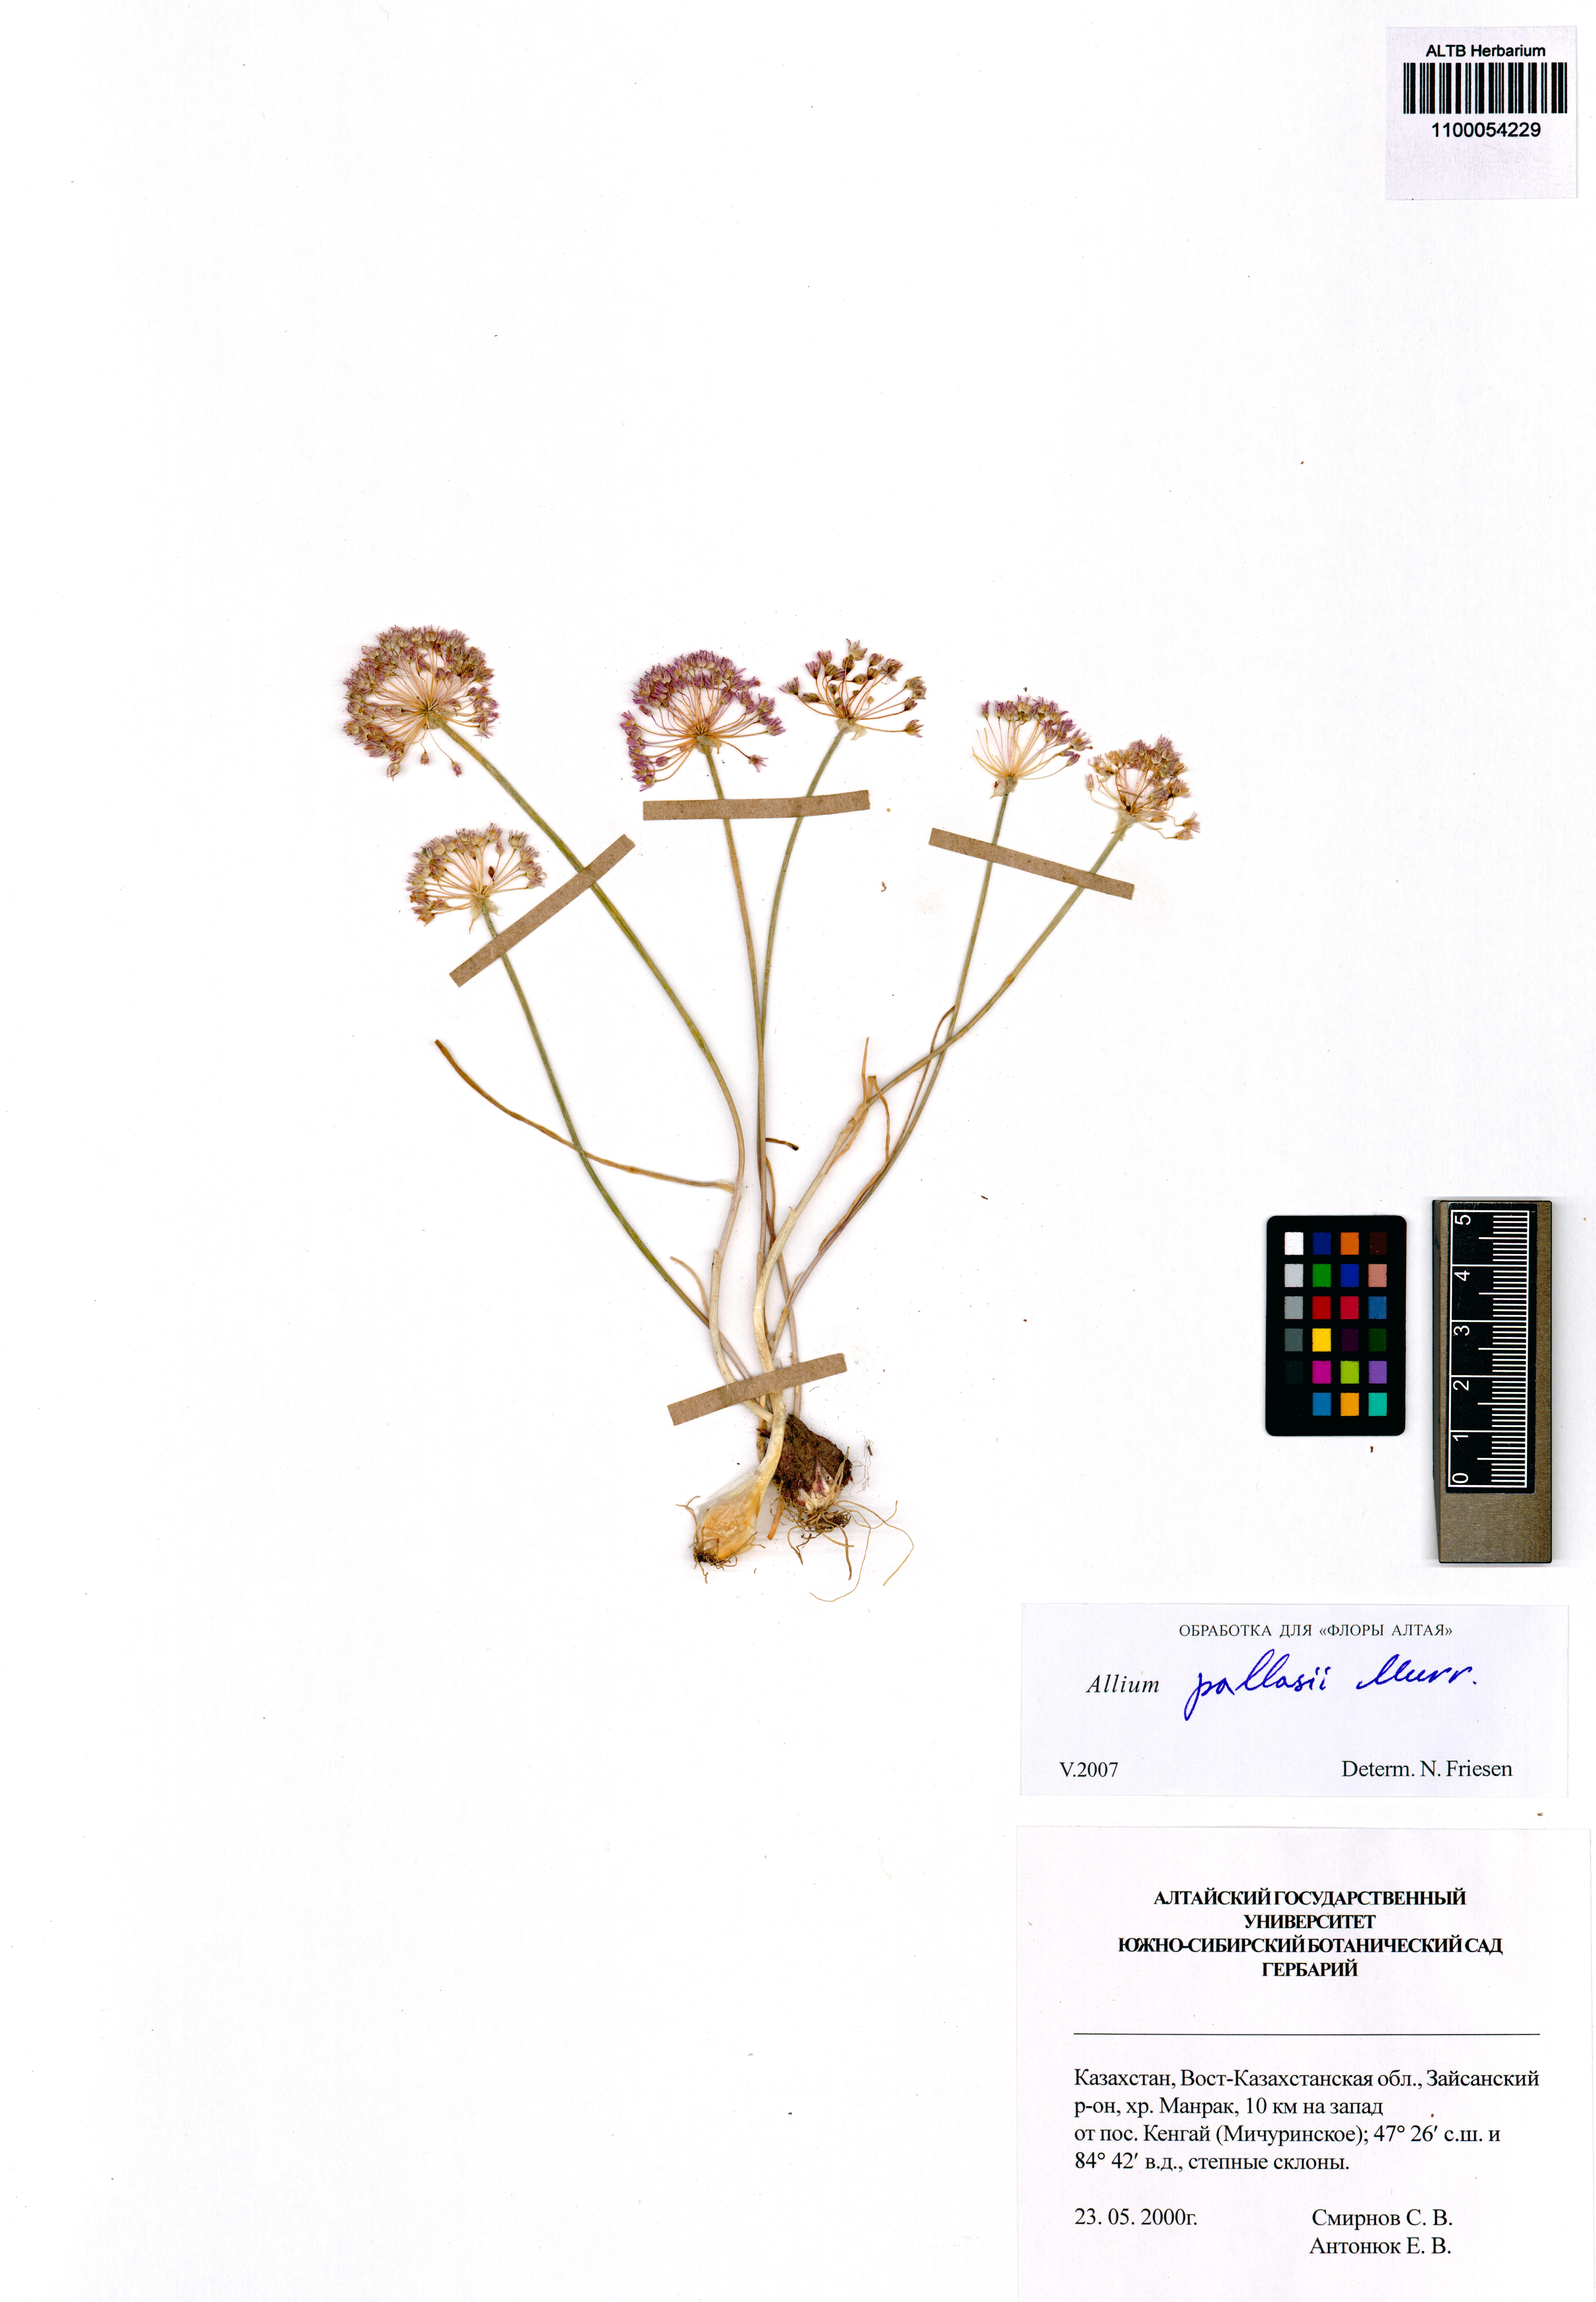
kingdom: Plantae
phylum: Tracheophyta
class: Liliopsida
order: Asparagales
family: Amaryllidaceae
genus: Allium
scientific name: Allium pallasii
